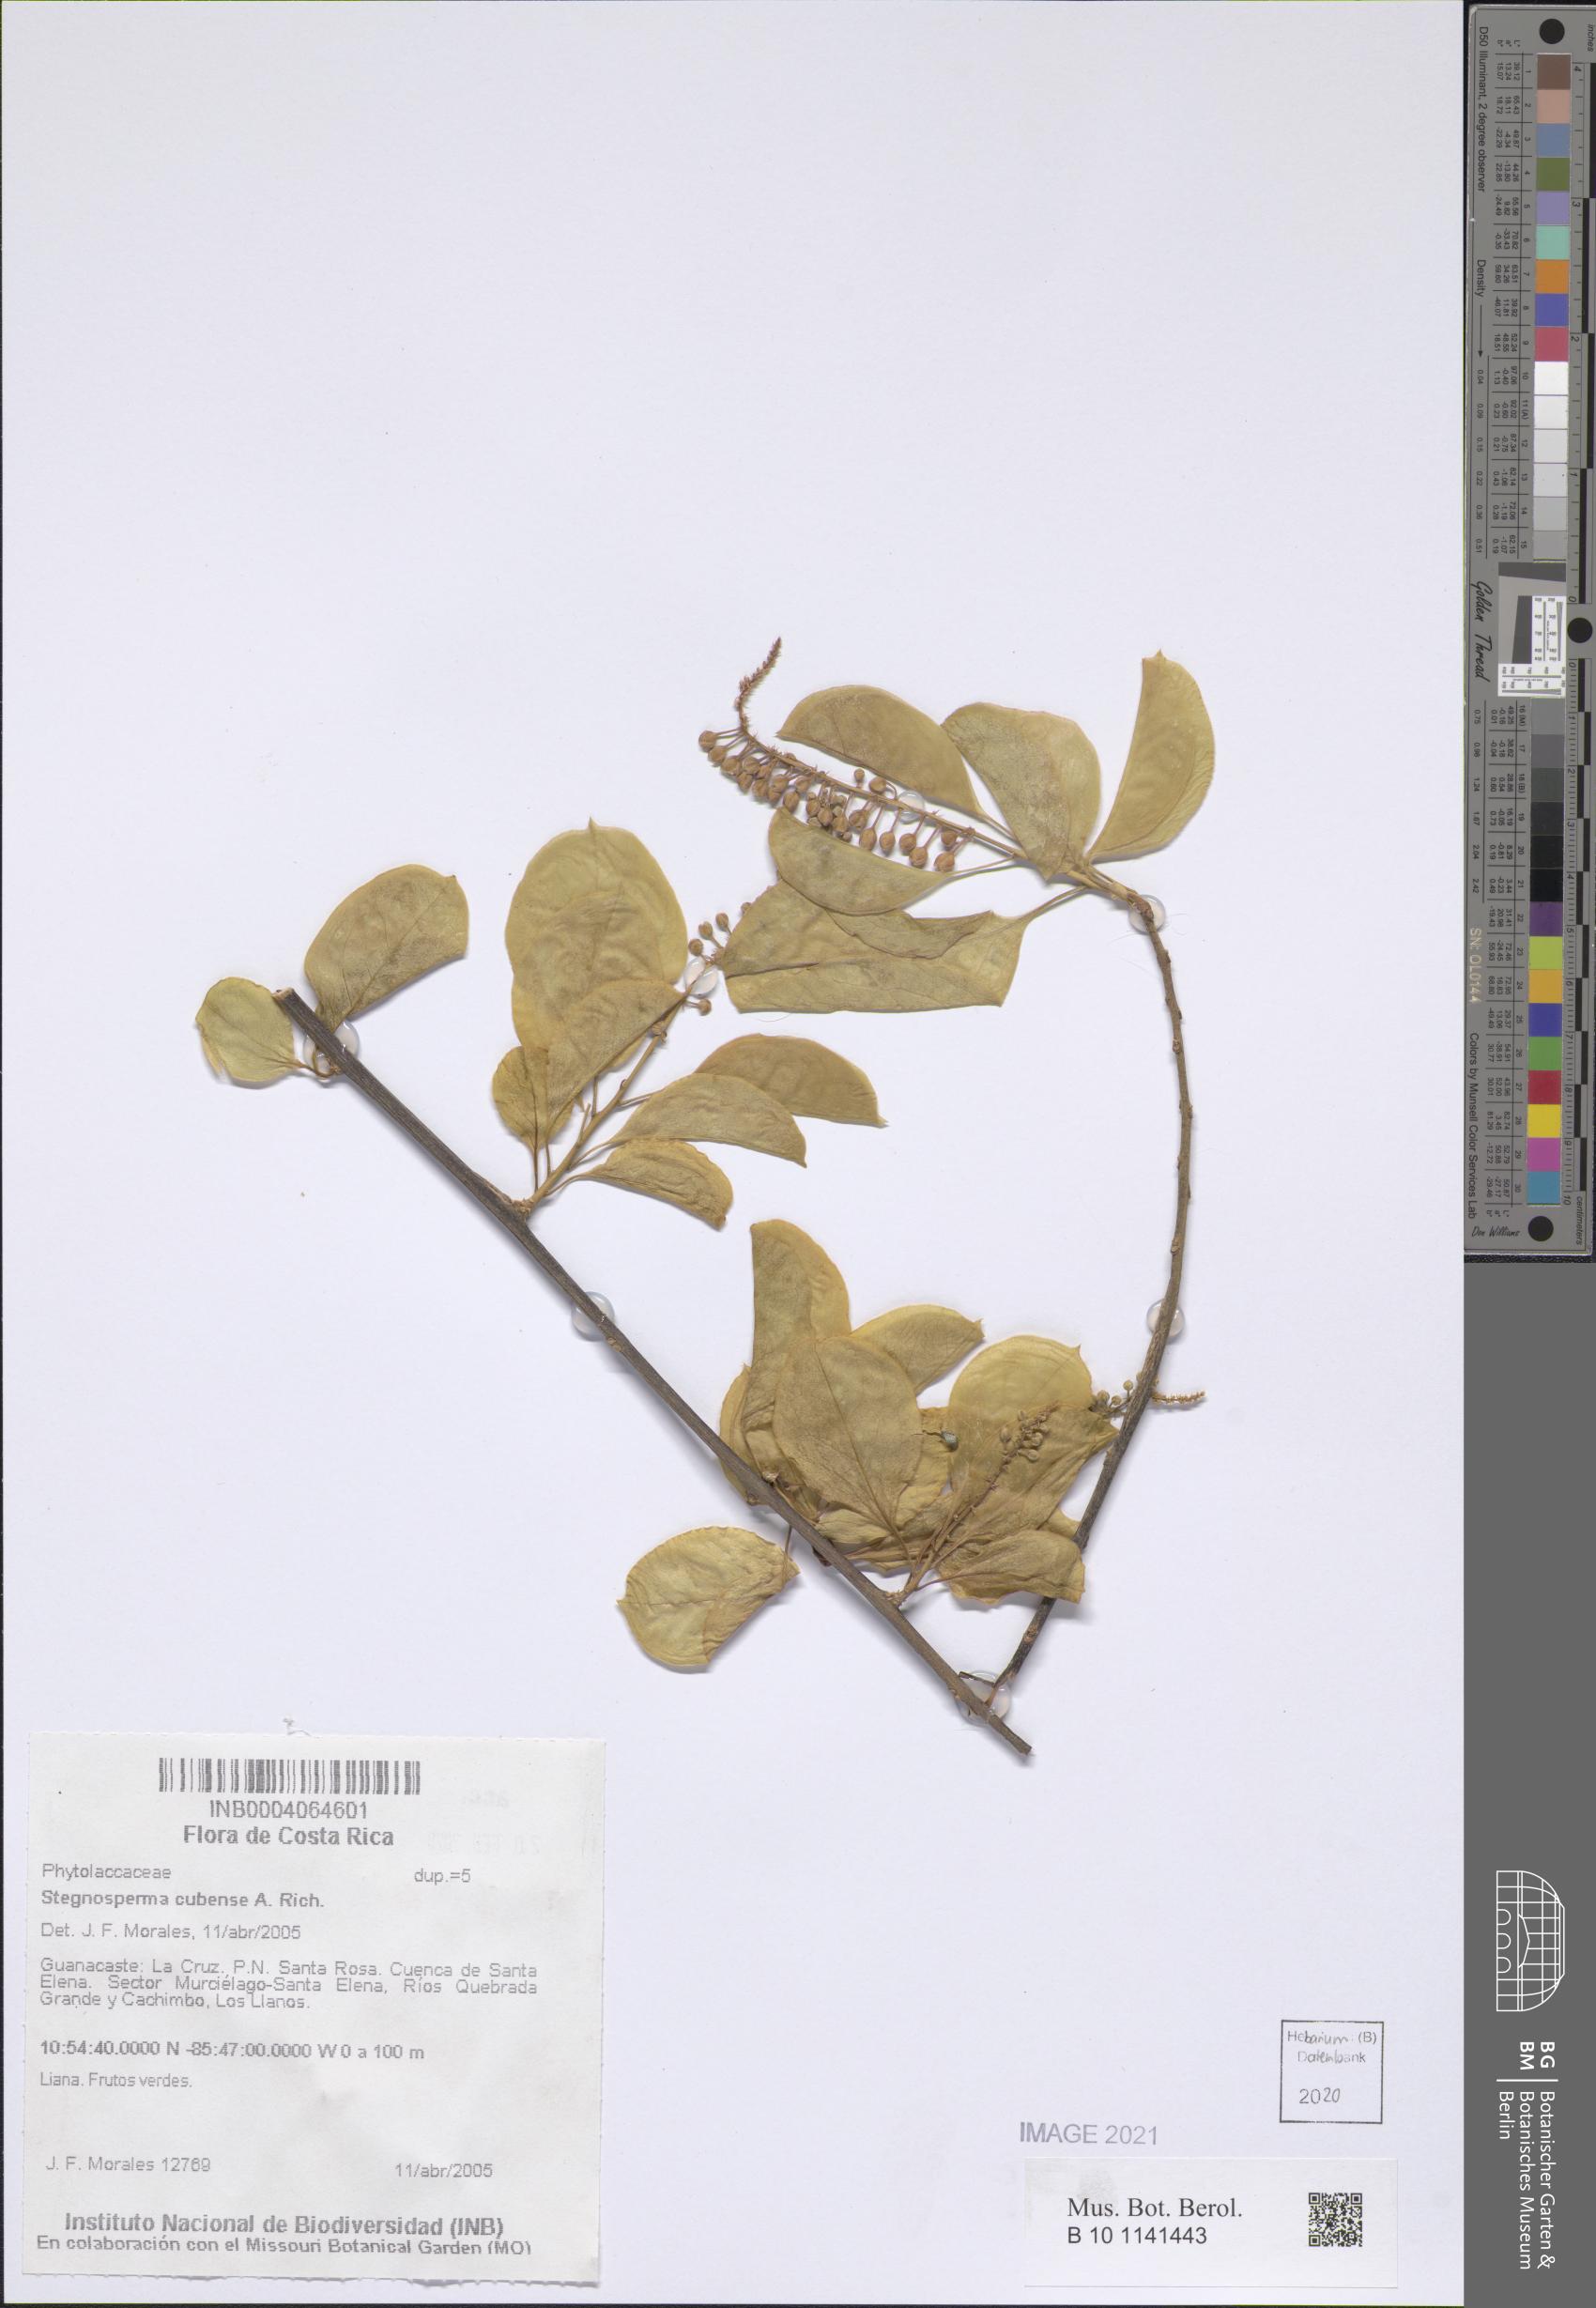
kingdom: Plantae
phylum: Tracheophyta
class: Magnoliopsida
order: Caryophyllales
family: Stegnospermataceae
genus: Stegnosperma
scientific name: Stegnosperma cubense
